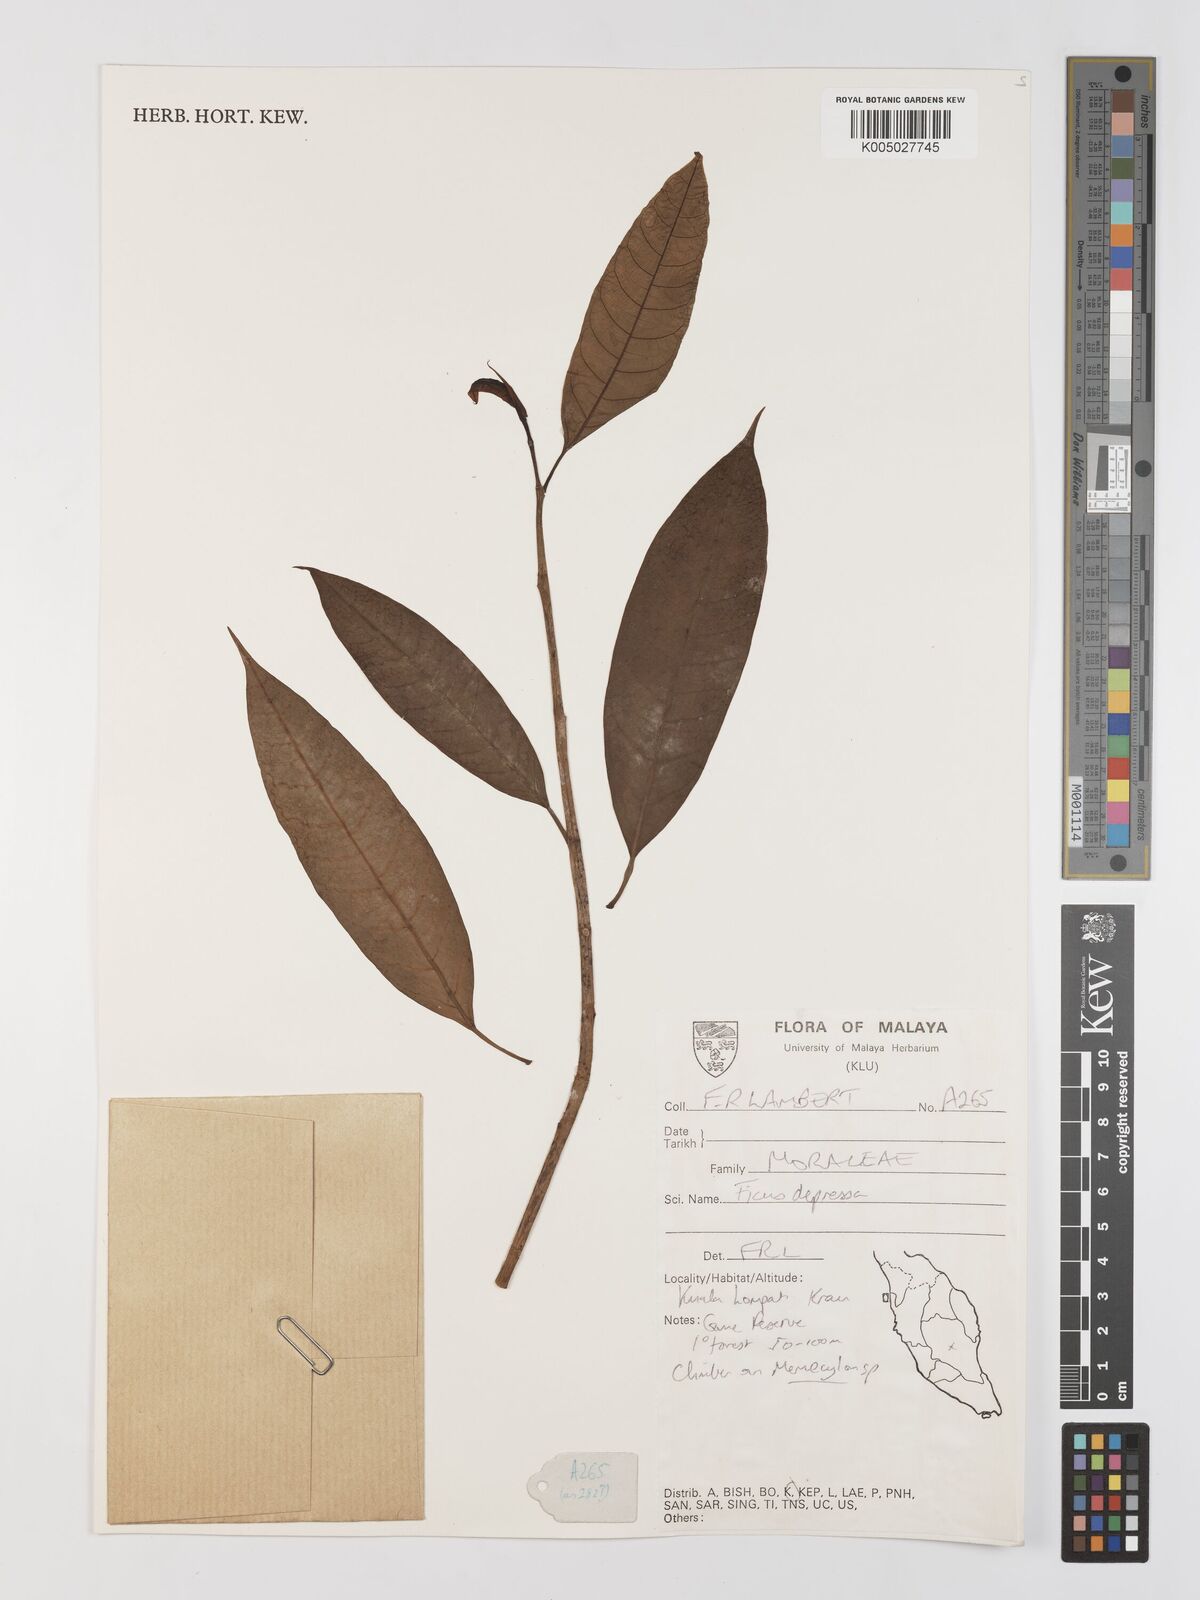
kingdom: Plantae
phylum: Tracheophyta
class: Magnoliopsida
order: Rosales
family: Moraceae
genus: Ficus
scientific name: Ficus
